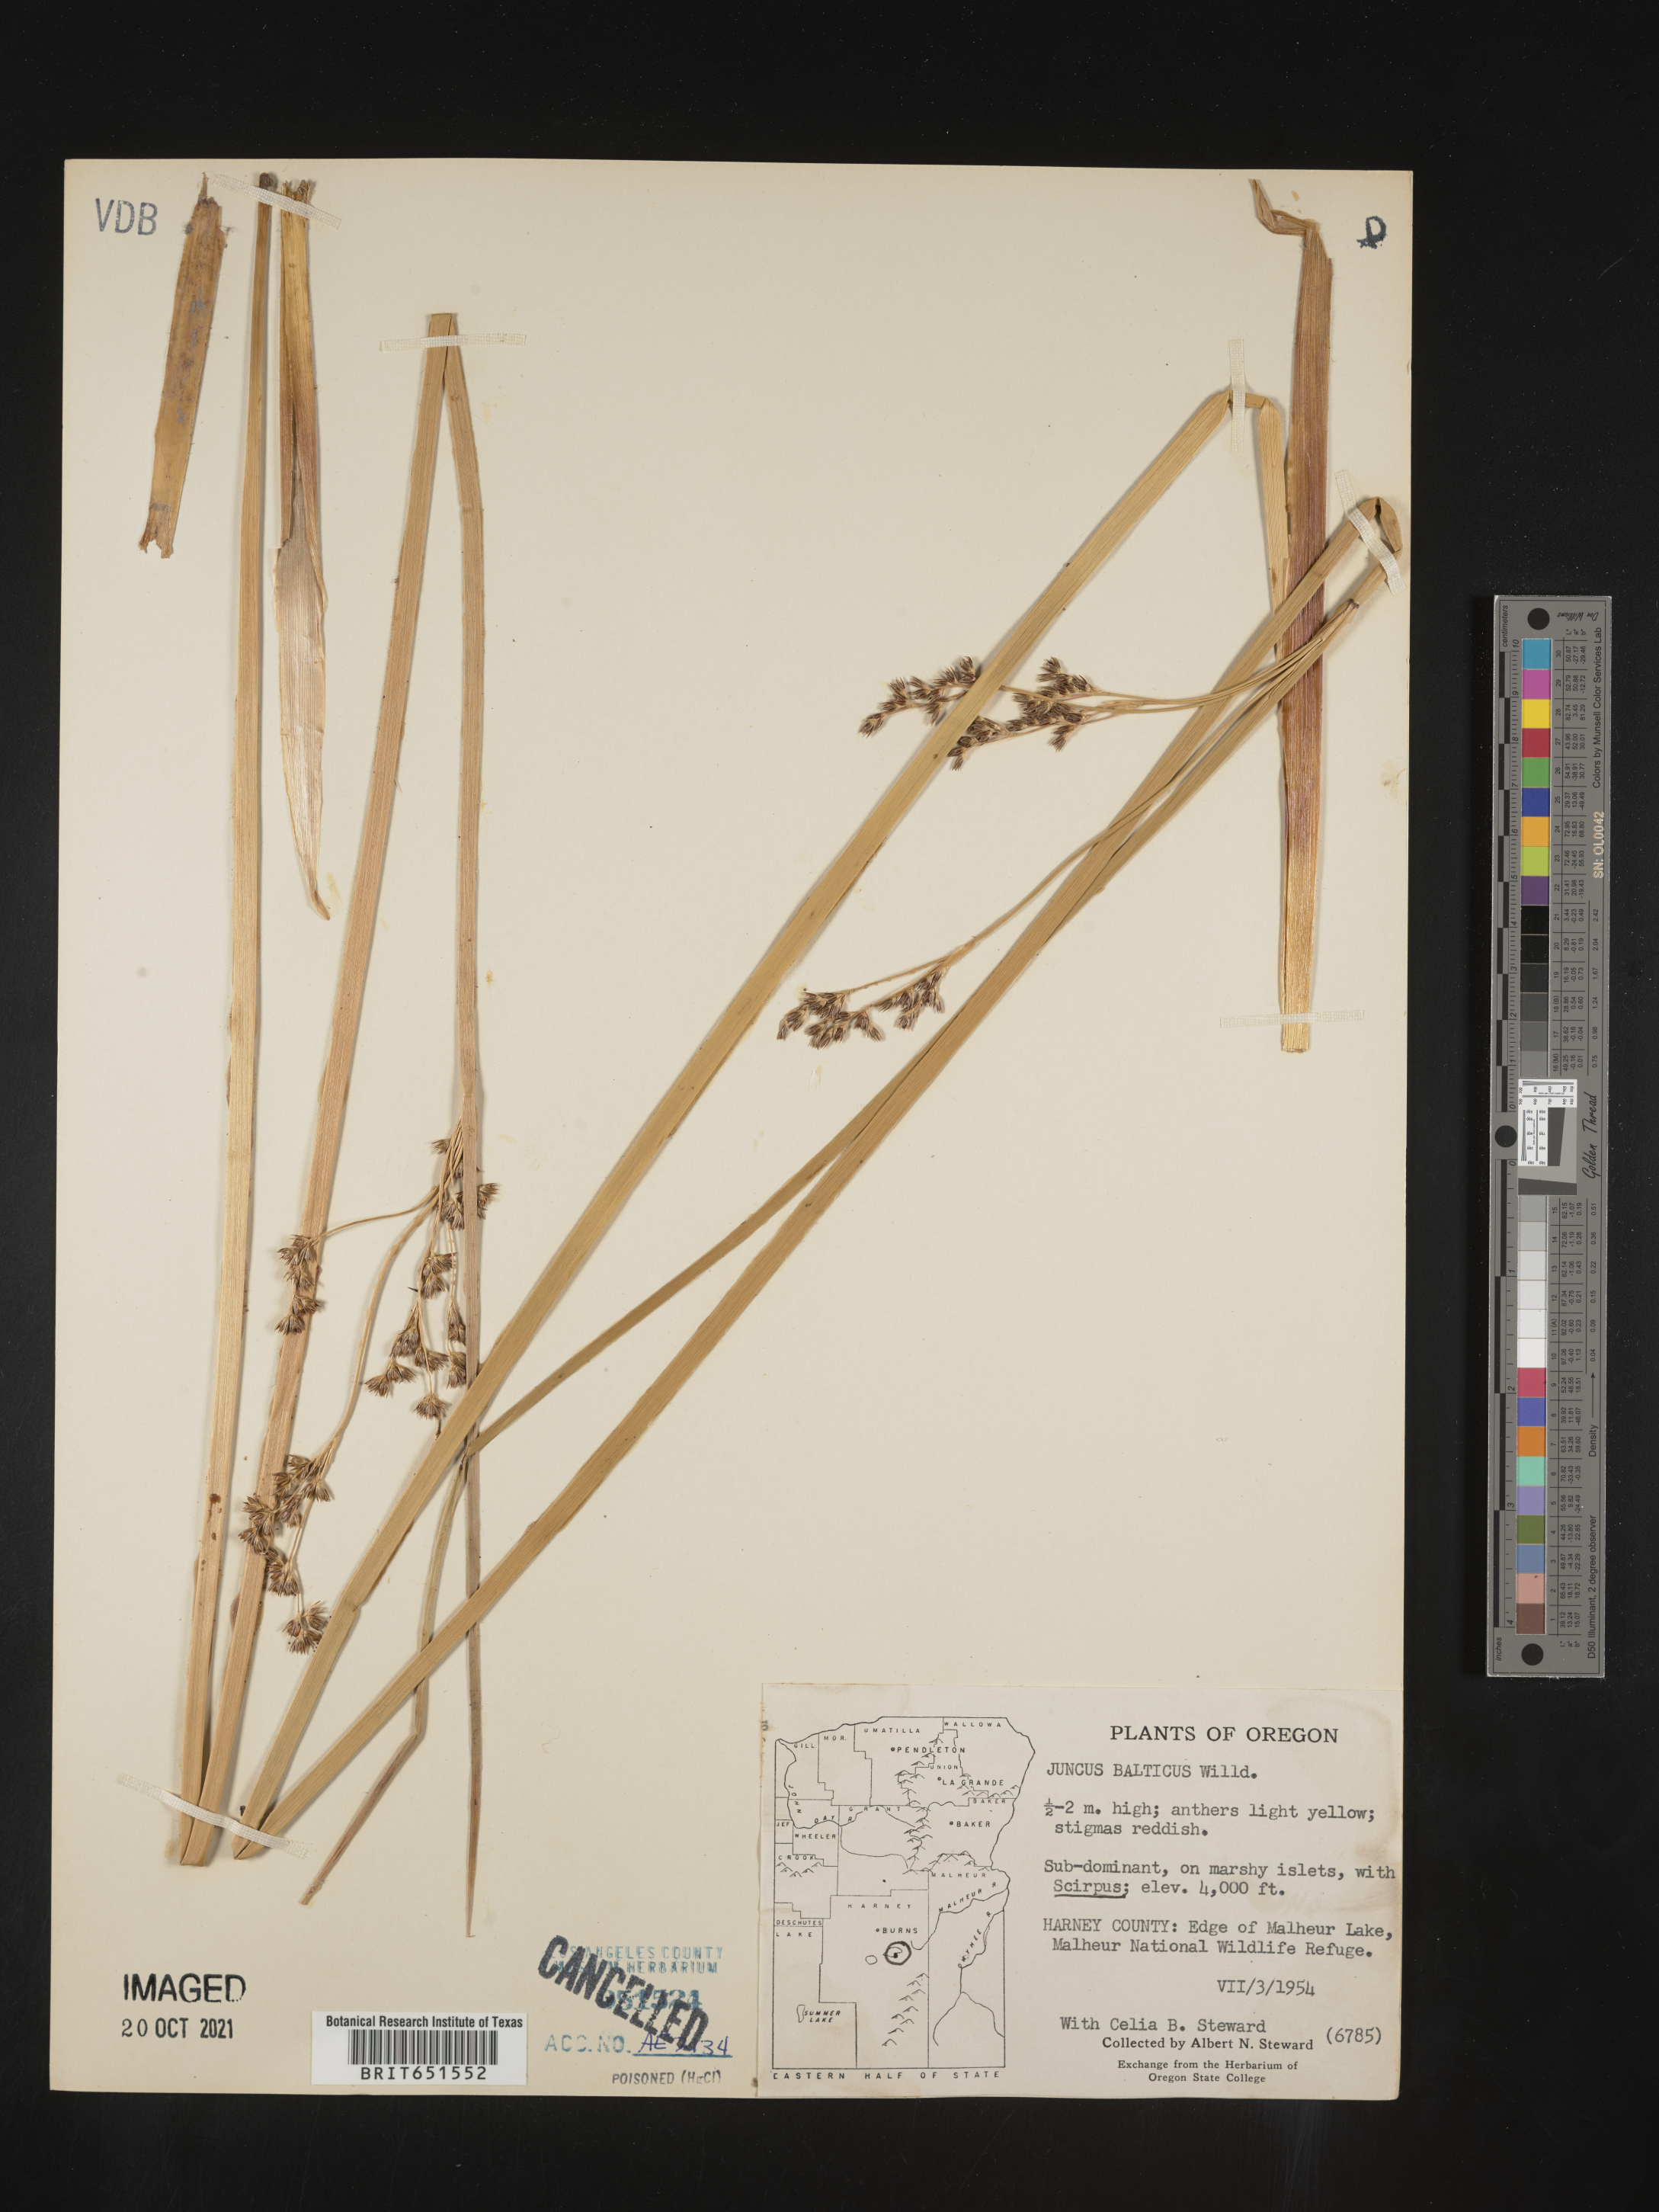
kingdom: Plantae
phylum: Tracheophyta
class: Liliopsida
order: Poales
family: Juncaceae
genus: Juncus
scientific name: Juncus balticus
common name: Baltic rush
